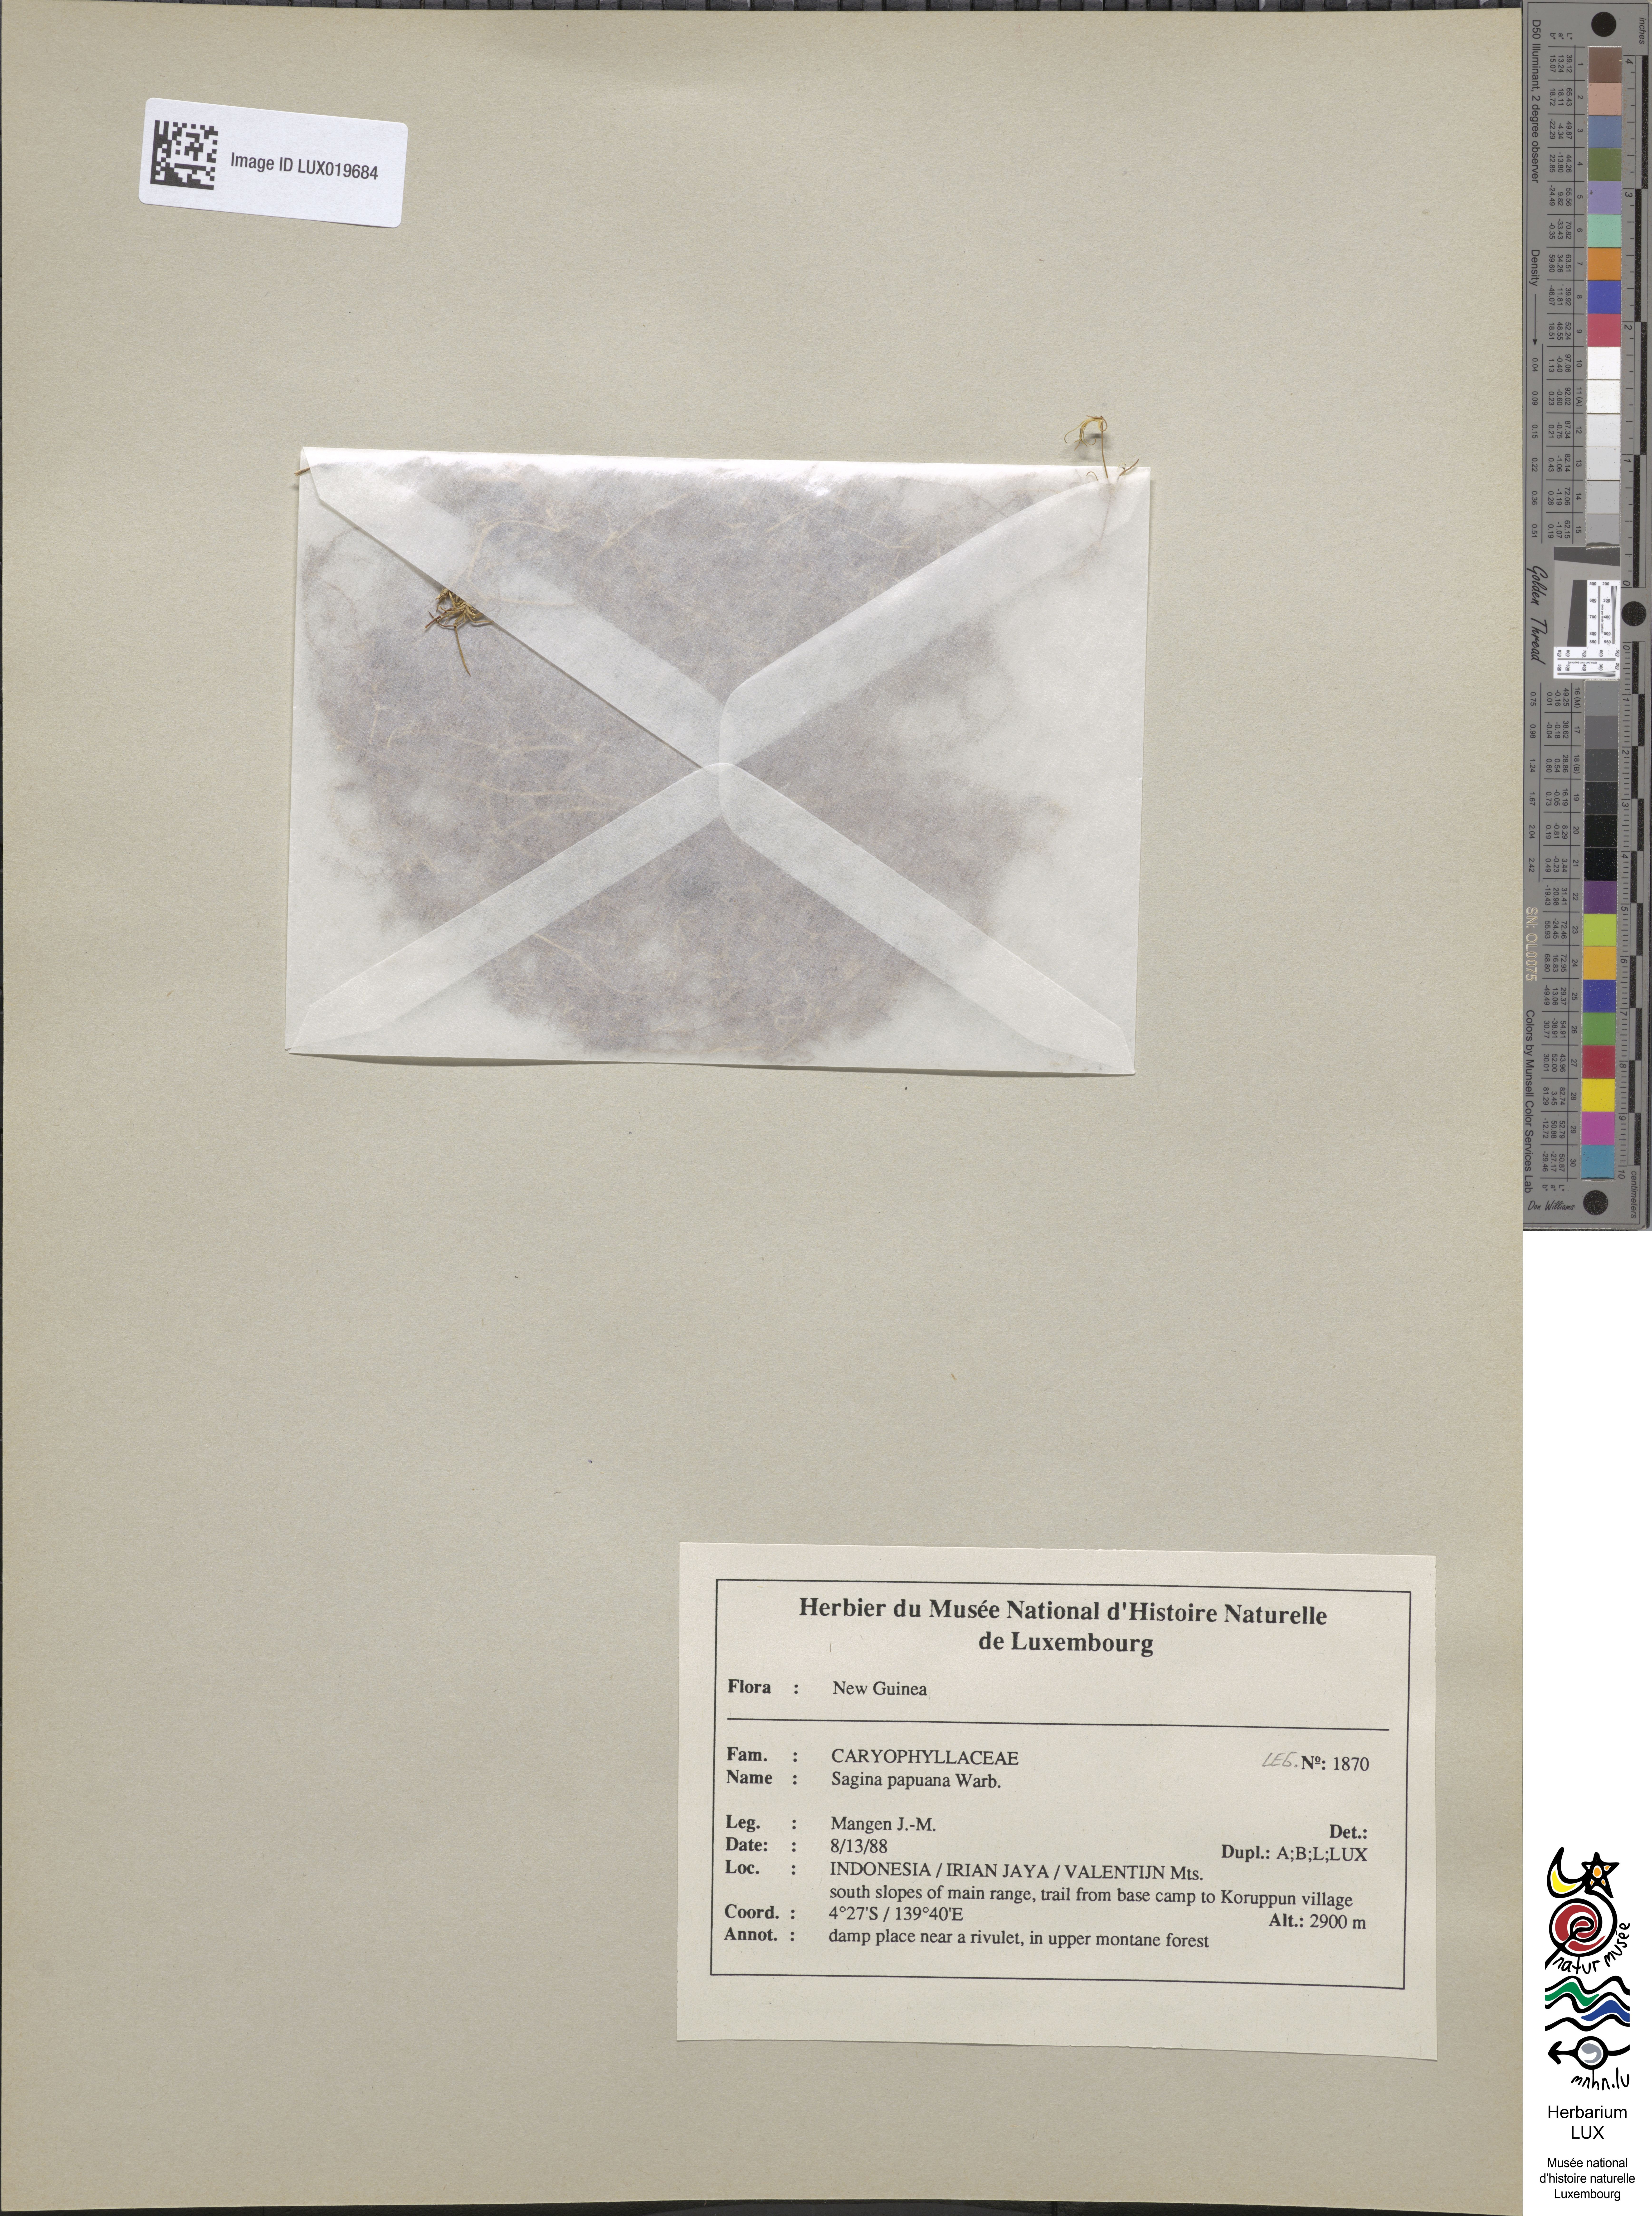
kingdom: Plantae
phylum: Tracheophyta
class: Magnoliopsida
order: Caryophyllales
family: Caryophyllaceae
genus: Sagina
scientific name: Sagina papuana
